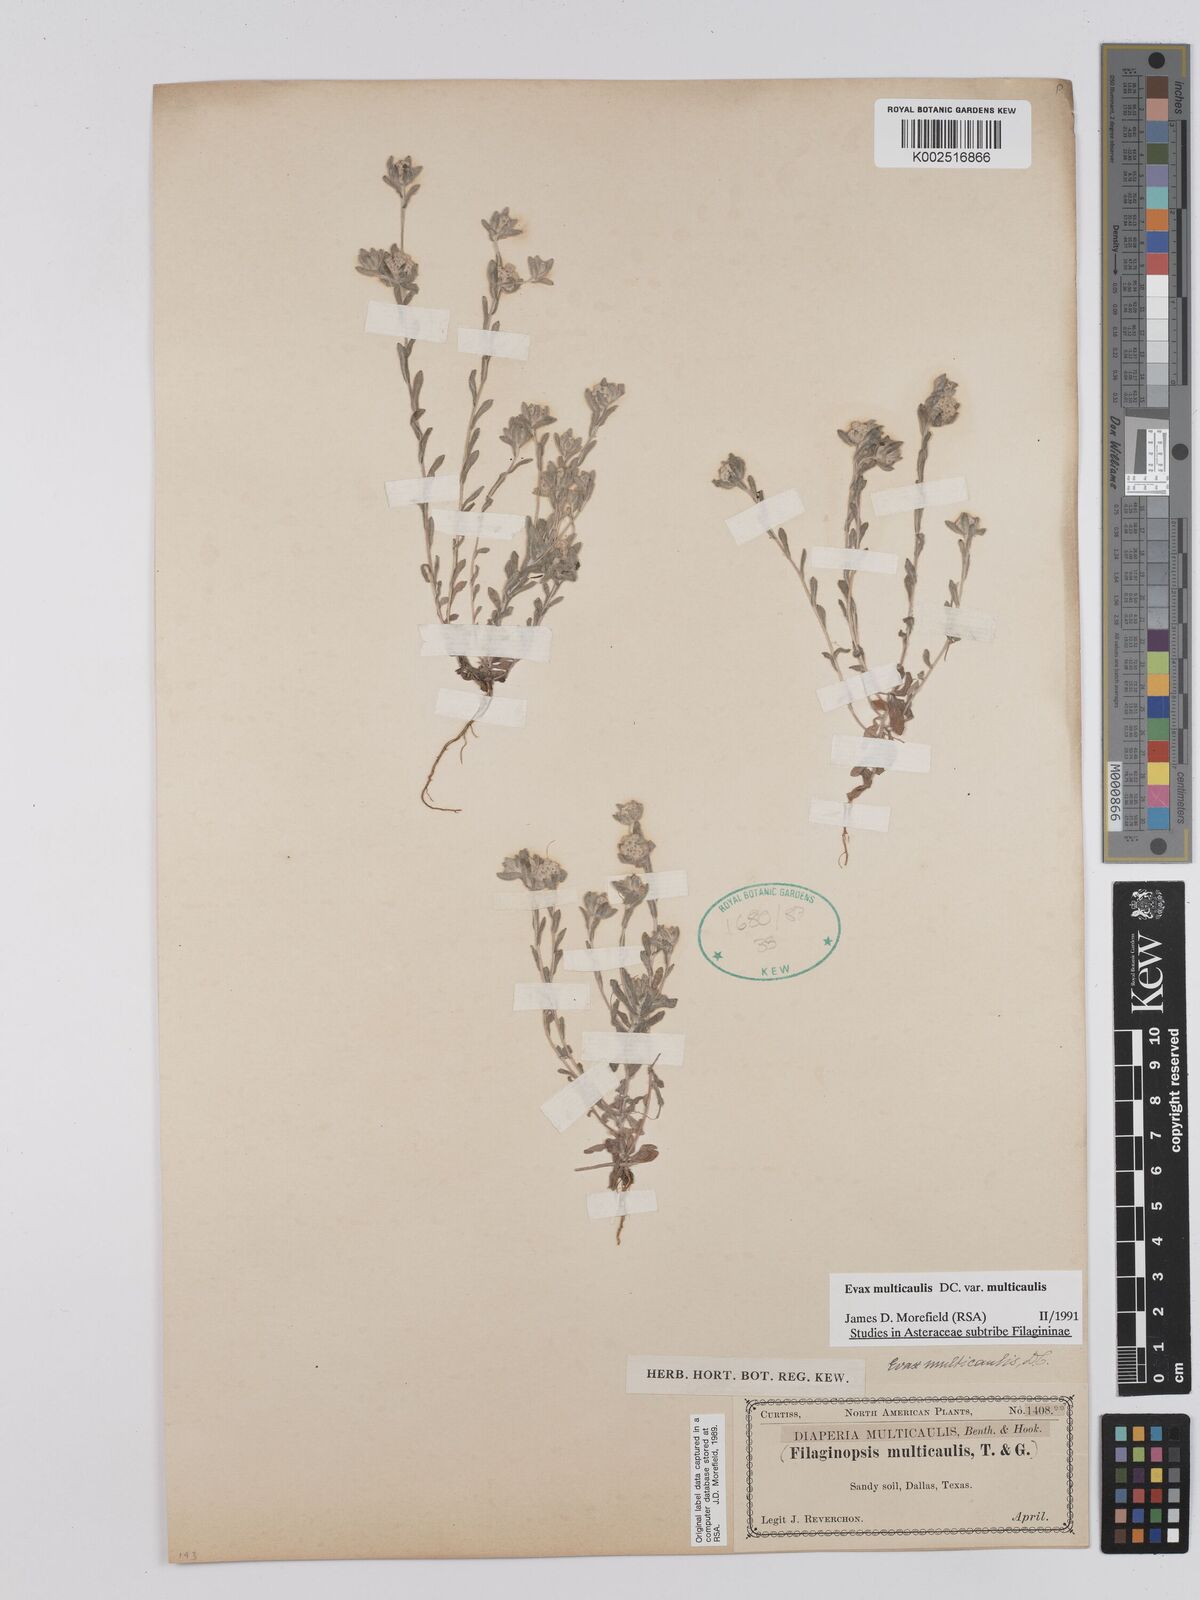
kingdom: Plantae
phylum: Tracheophyta
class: Magnoliopsida
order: Asterales
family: Asteraceae
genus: Filago
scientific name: Filago
